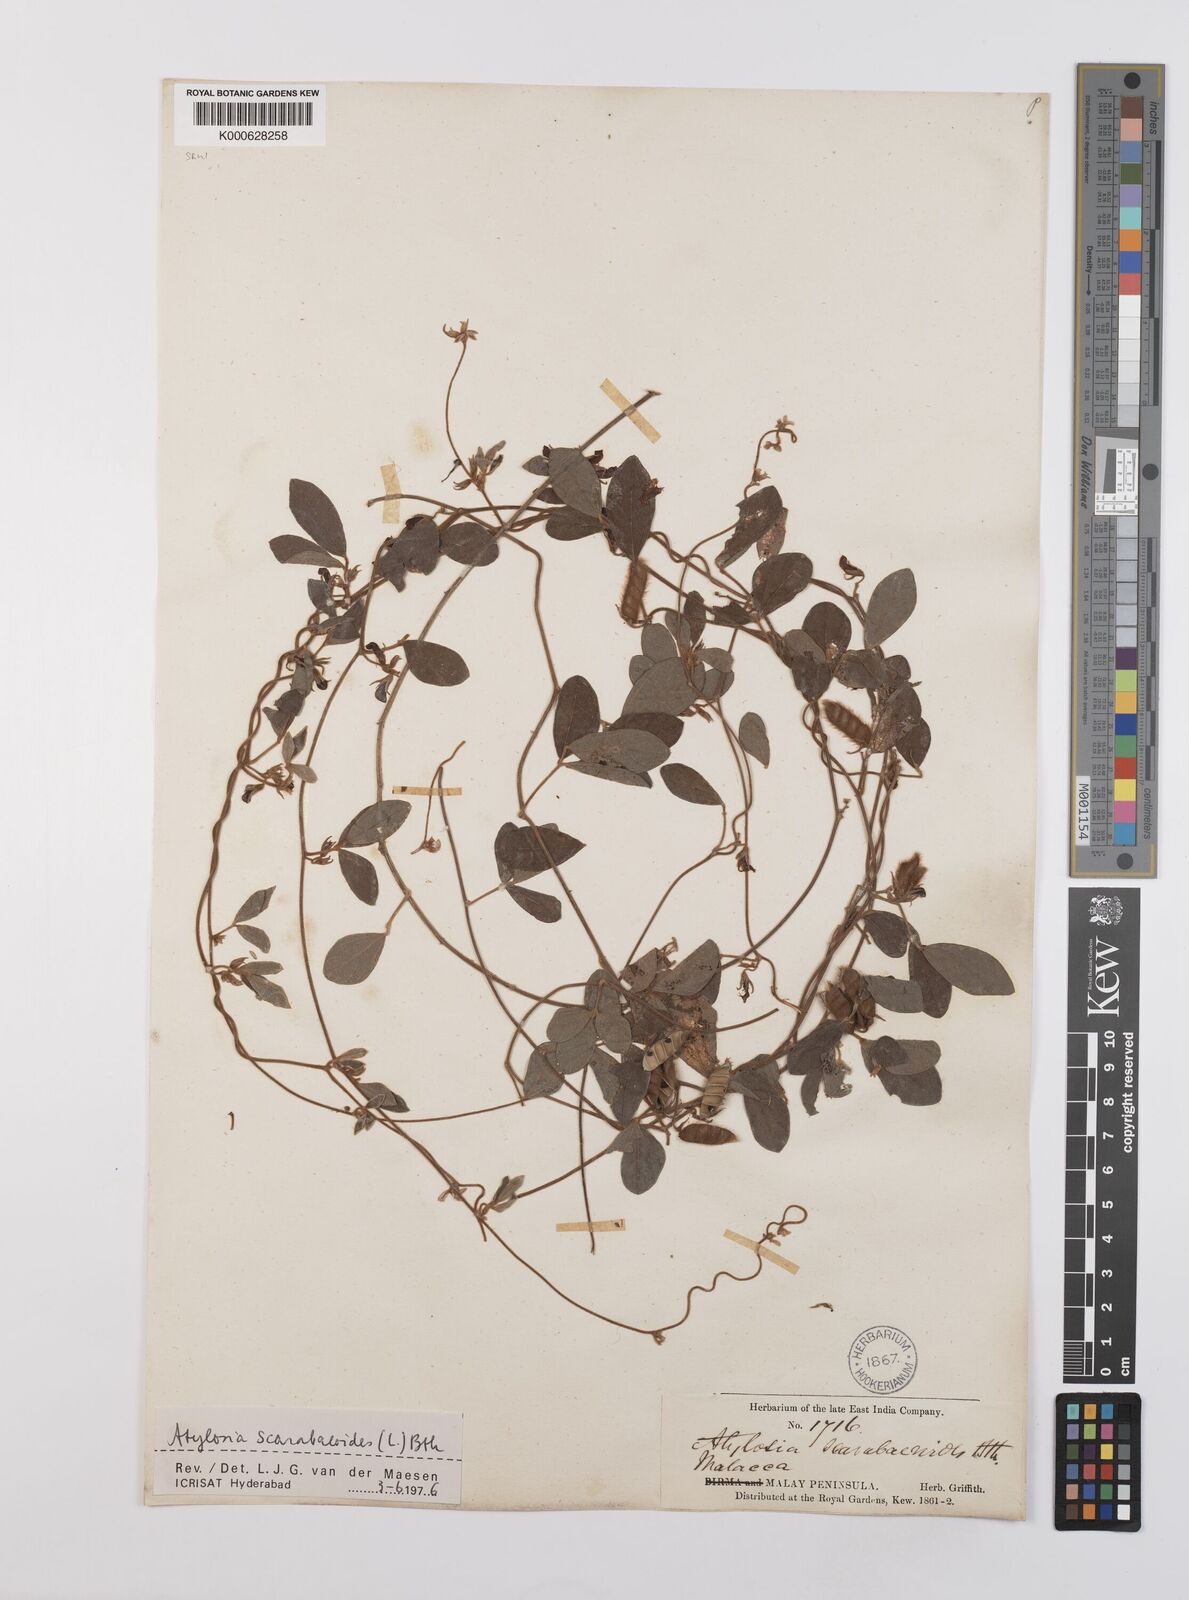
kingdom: Plantae
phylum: Tracheophyta
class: Magnoliopsida
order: Fabales
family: Fabaceae
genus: Cajanus
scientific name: Cajanus scarabaeoides
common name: Showy pigeonpea
